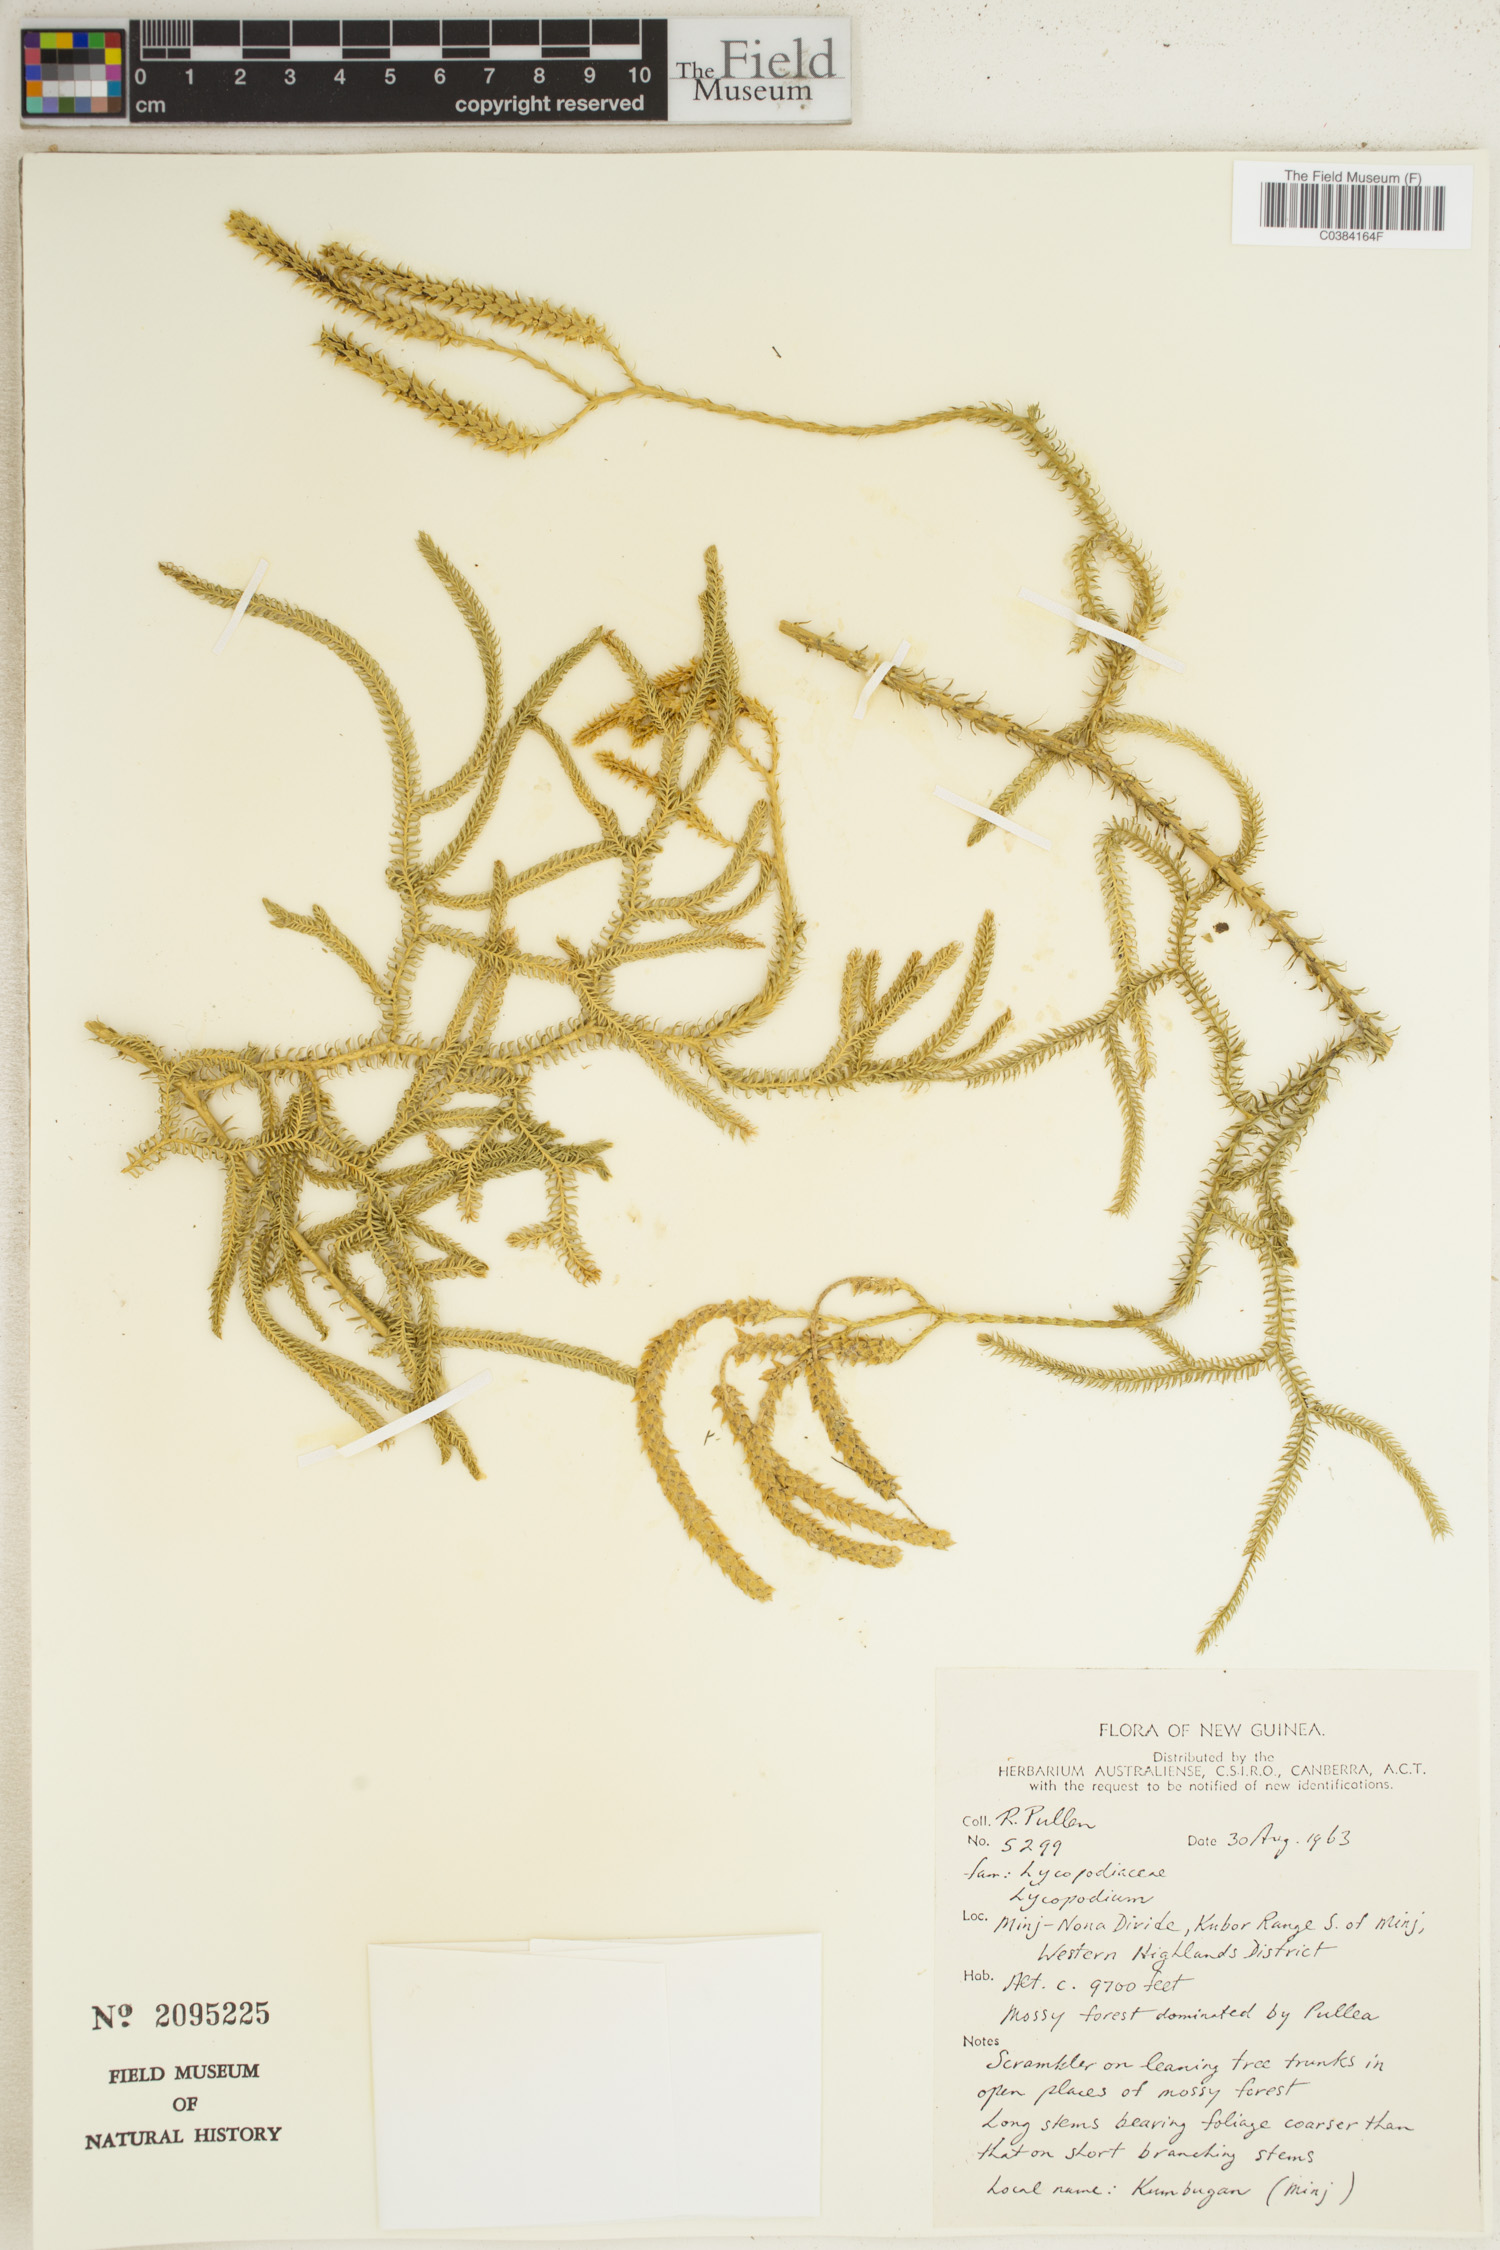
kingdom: Plantae
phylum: Tracheophyta
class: Lycopodiopsida
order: Lycopodiales
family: Lycopodiaceae
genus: Lycopodium
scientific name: Lycopodium
